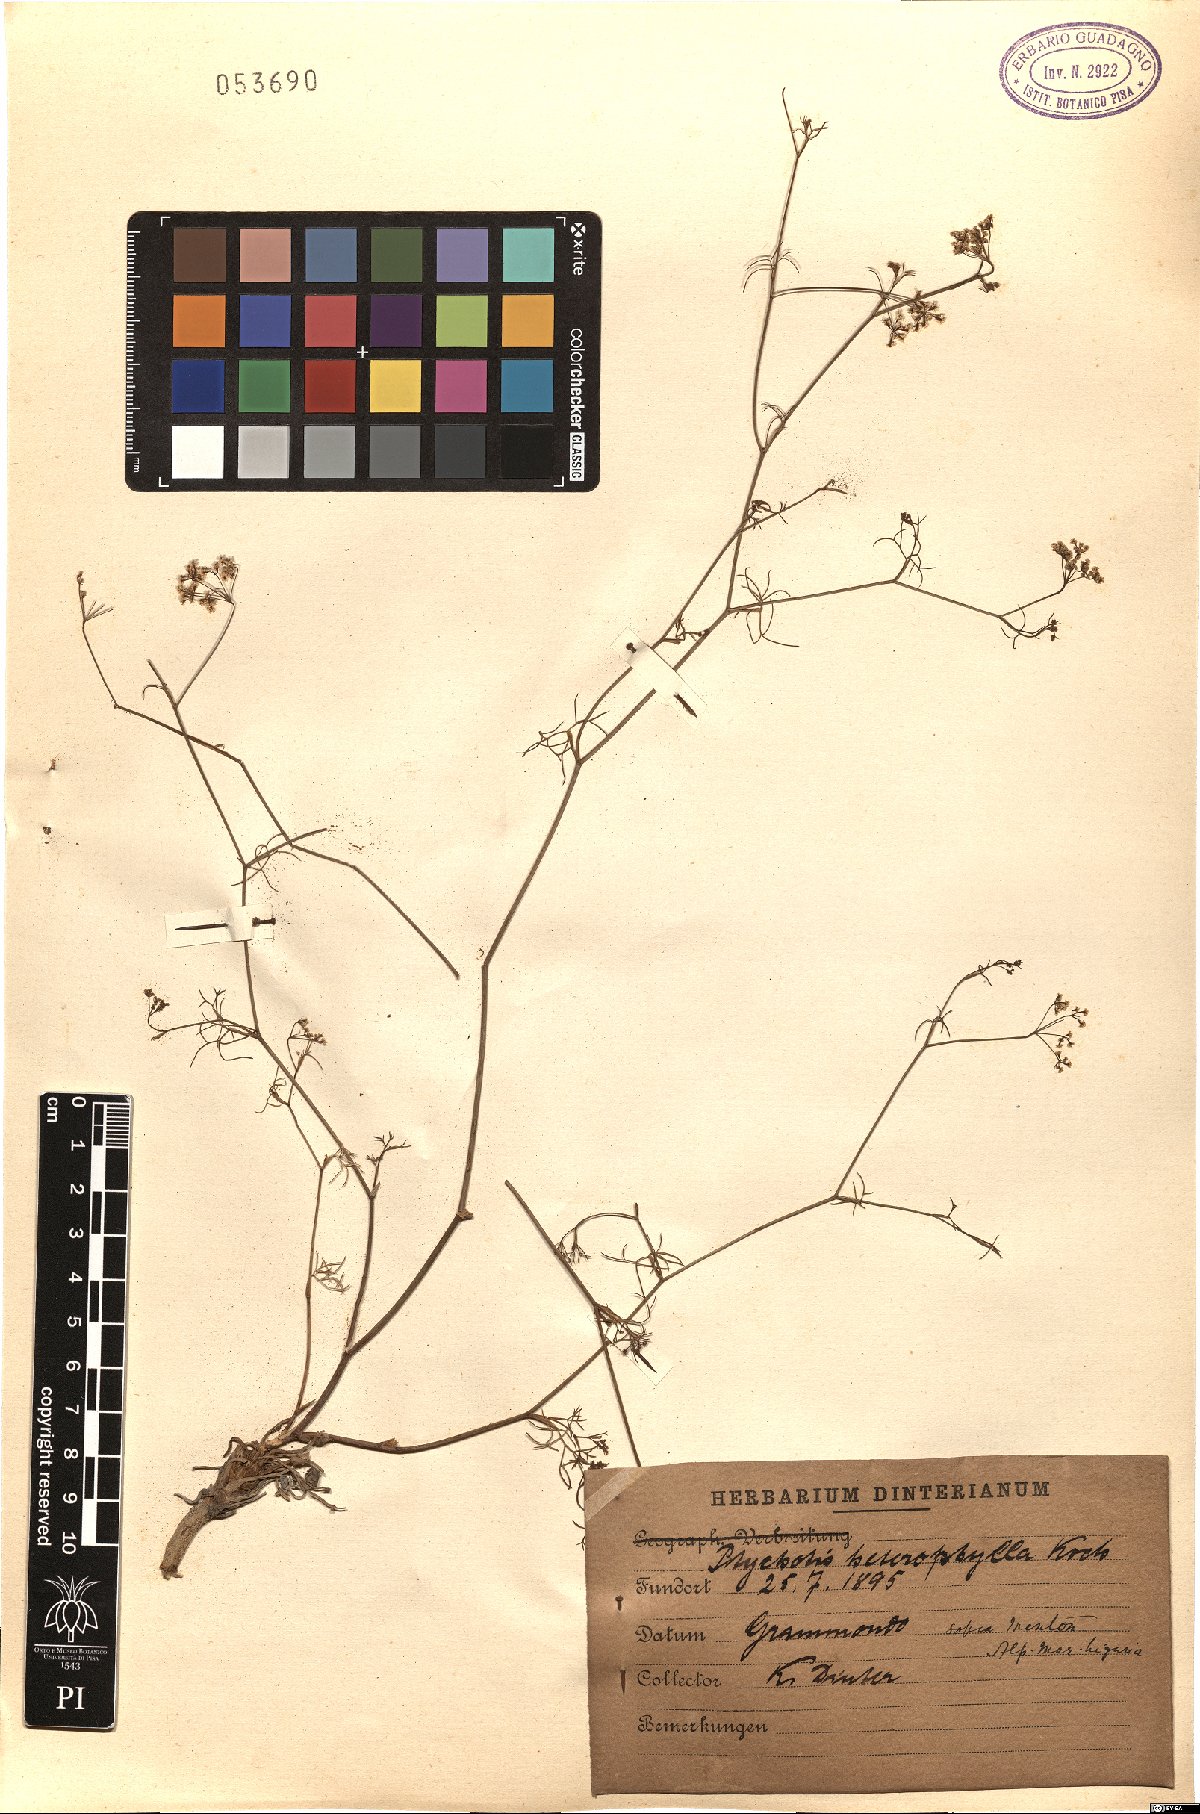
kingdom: Plantae
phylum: Tracheophyta
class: Magnoliopsida
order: Apiales
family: Apiaceae
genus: Ptychotis
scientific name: Ptychotis saxifraga
